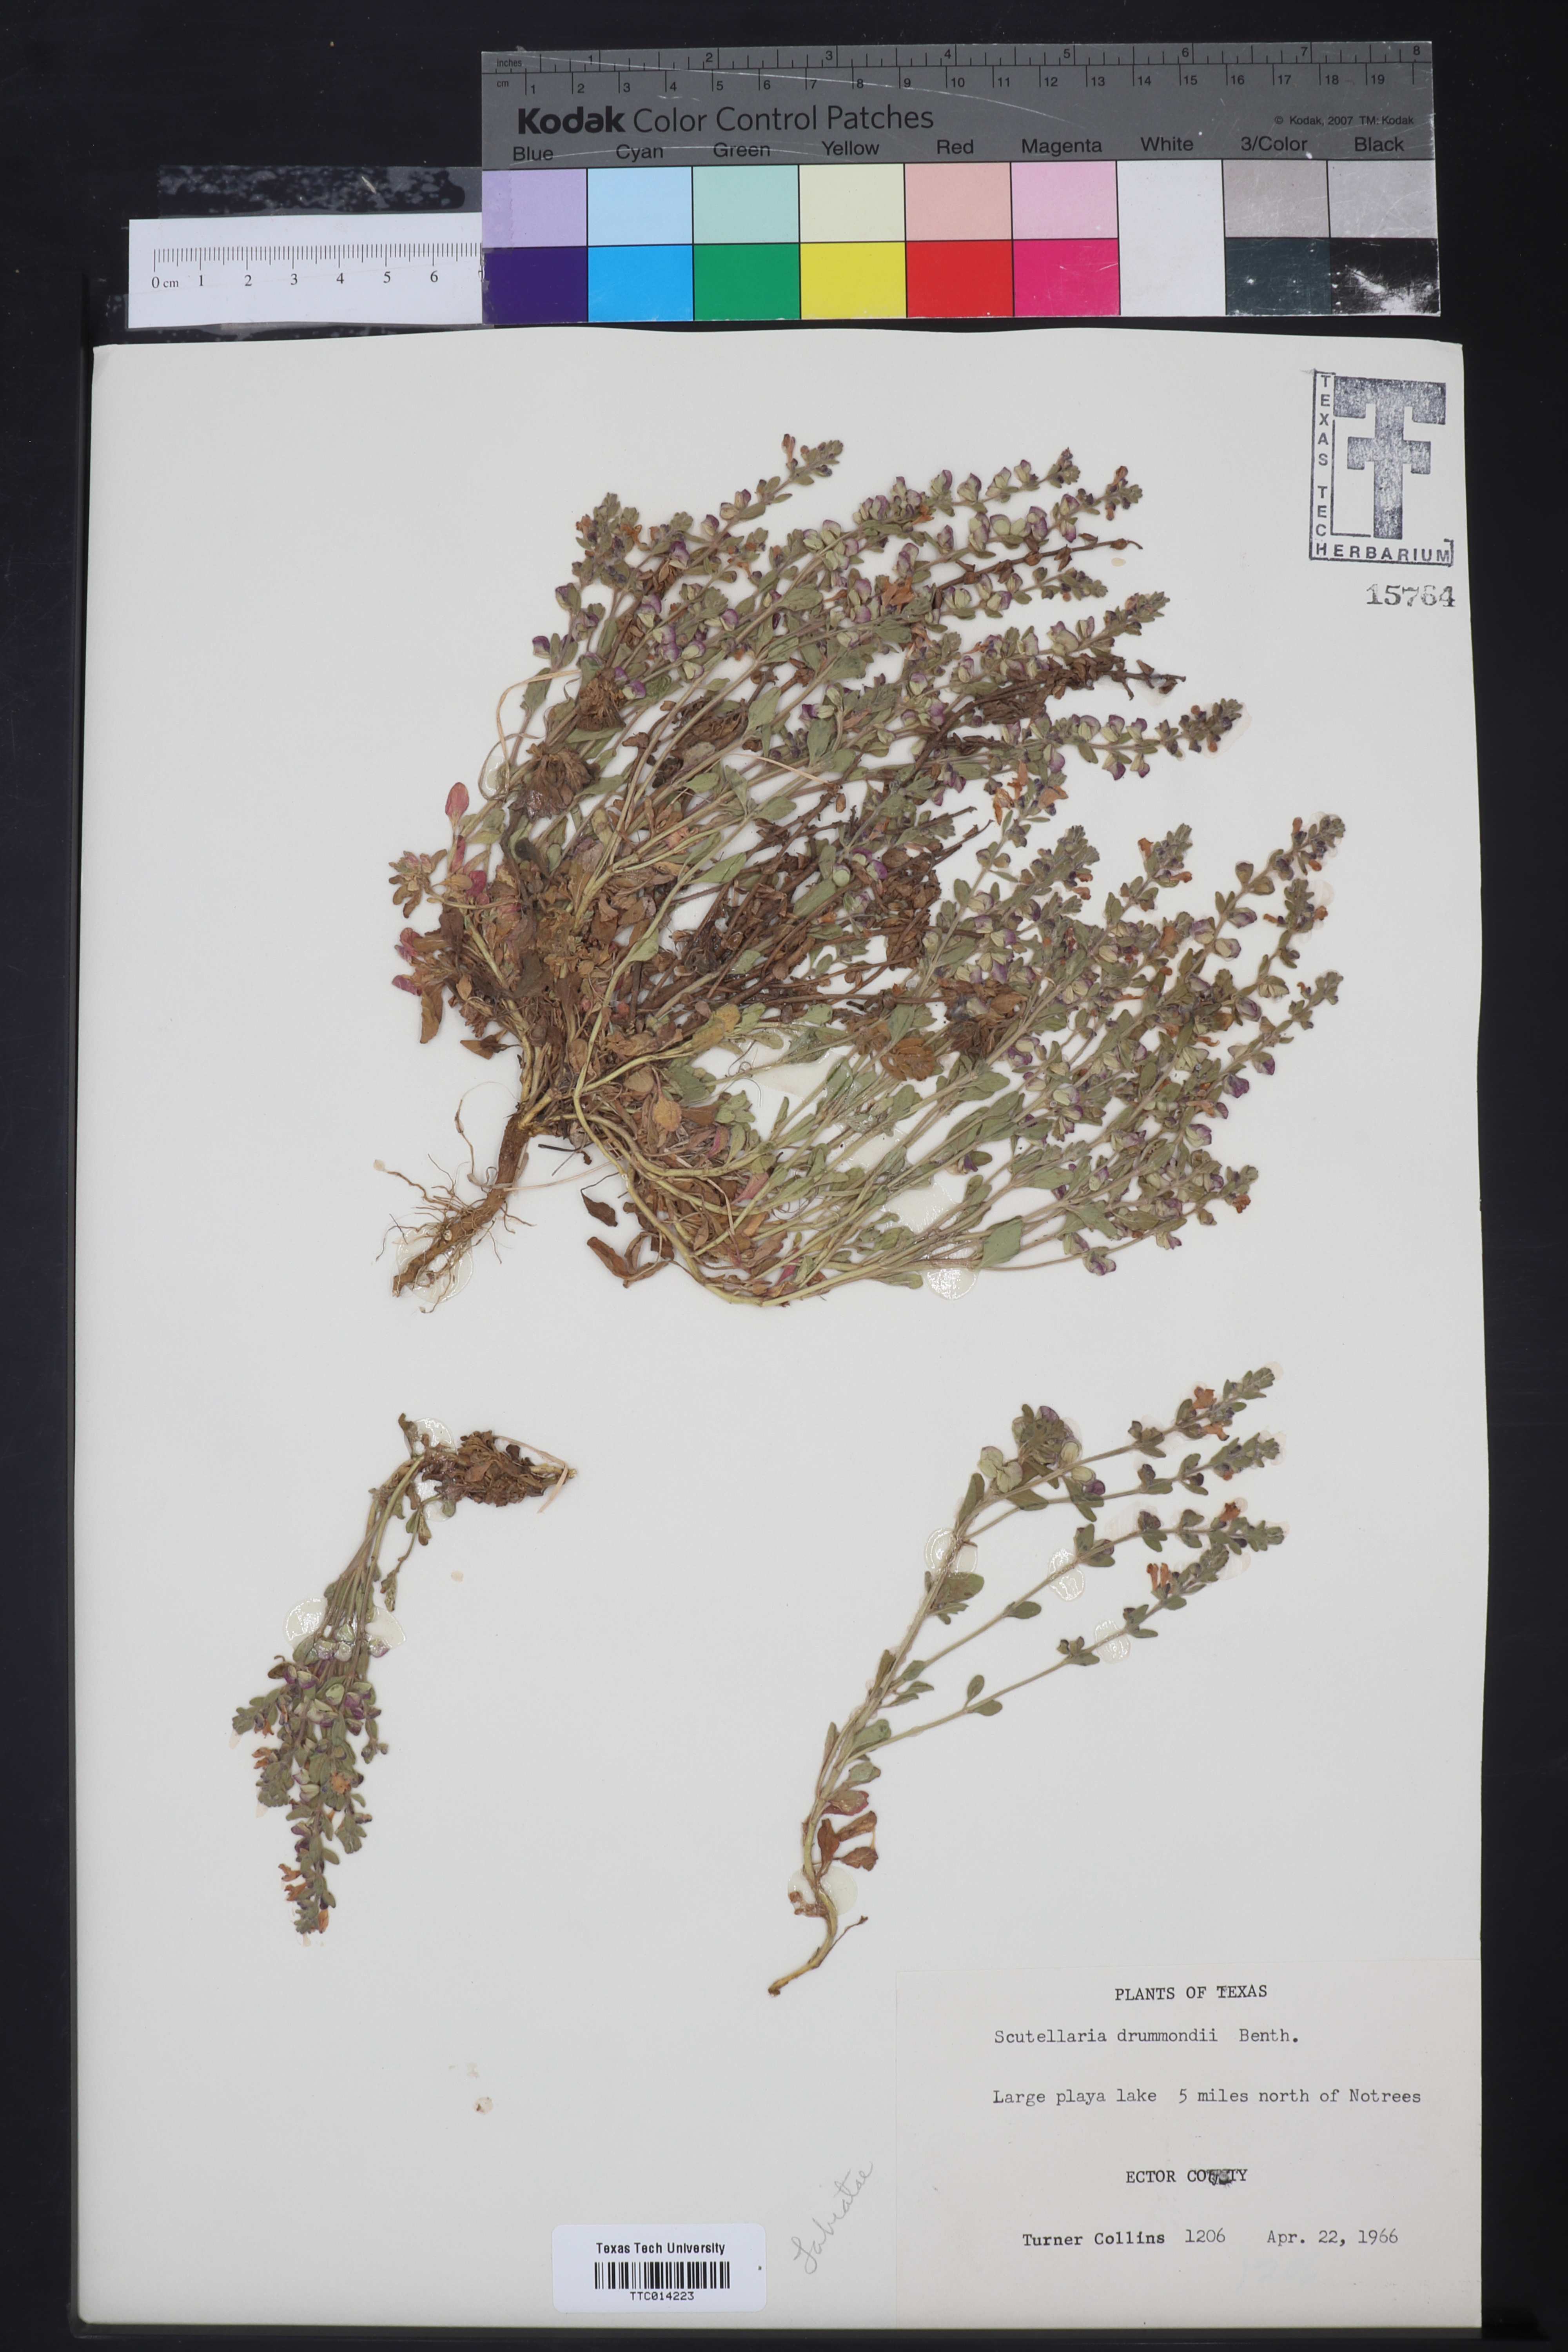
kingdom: Plantae
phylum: Tracheophyta
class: Magnoliopsida
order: Lamiales
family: Lamiaceae
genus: Scutellaria
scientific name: Scutellaria drummondii
